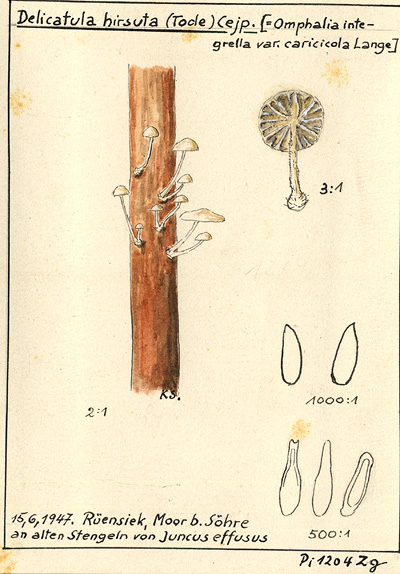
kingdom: Plantae
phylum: Tracheophyta
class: Liliopsida
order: Poales
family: Juncaceae
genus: Juncus
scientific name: Juncus effusus
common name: Soft rush
